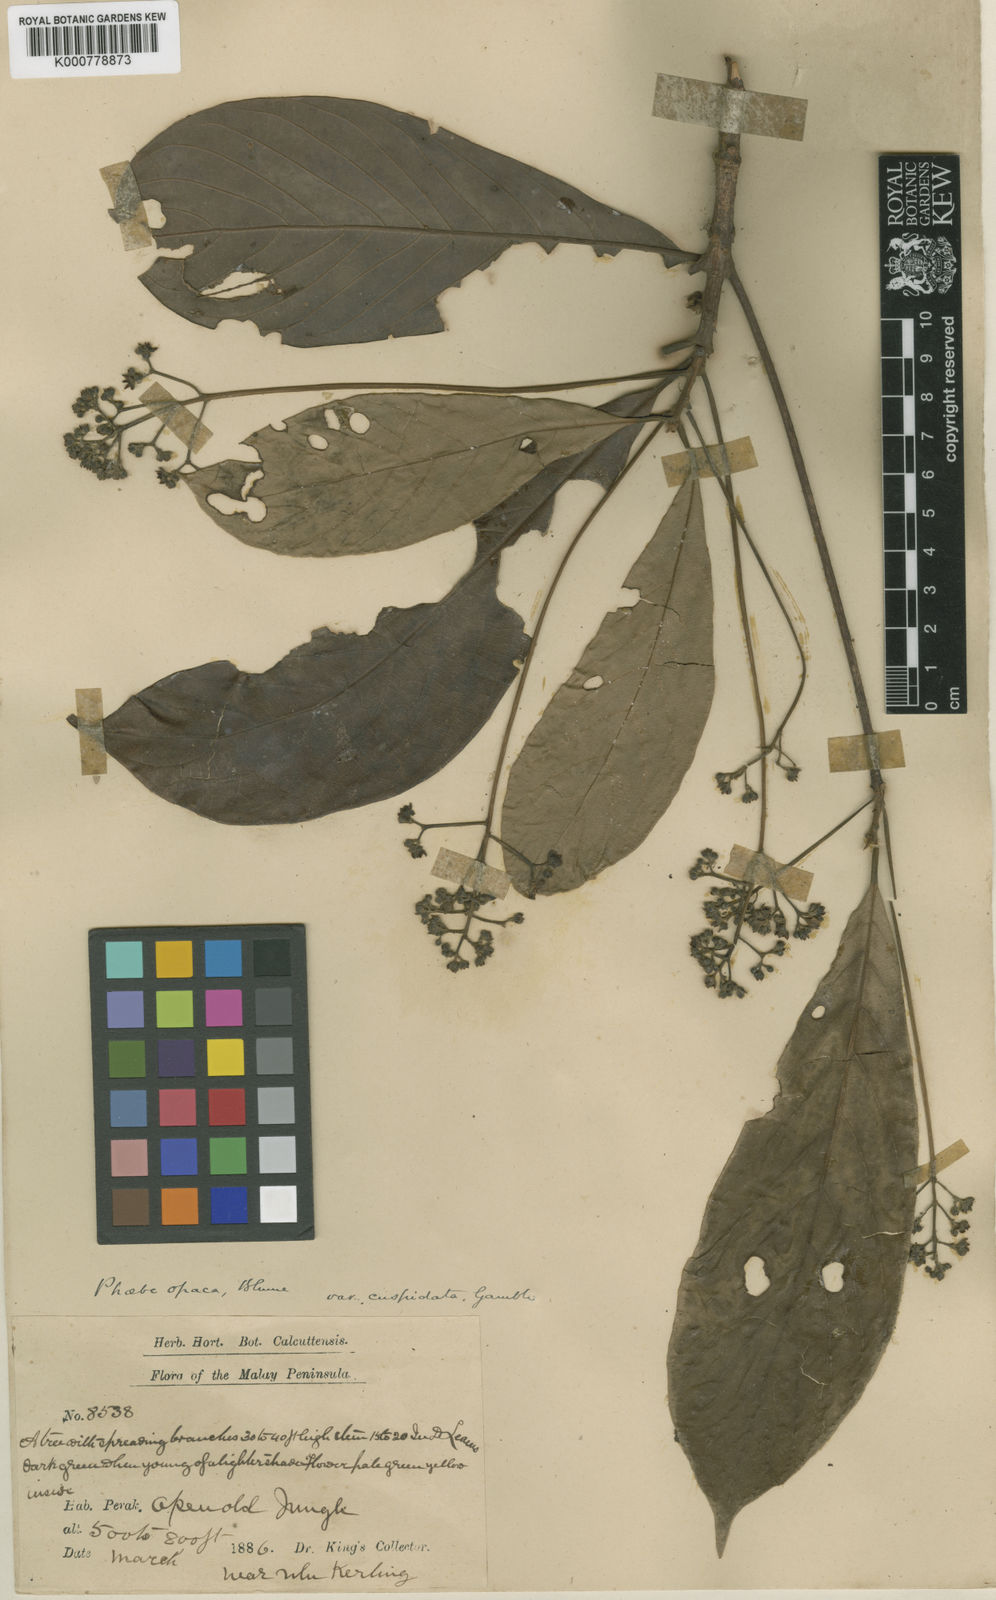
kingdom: Plantae
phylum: Tracheophyta
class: Magnoliopsida
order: Laurales
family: Lauraceae
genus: Phoebe
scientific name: Phoebe grandis
